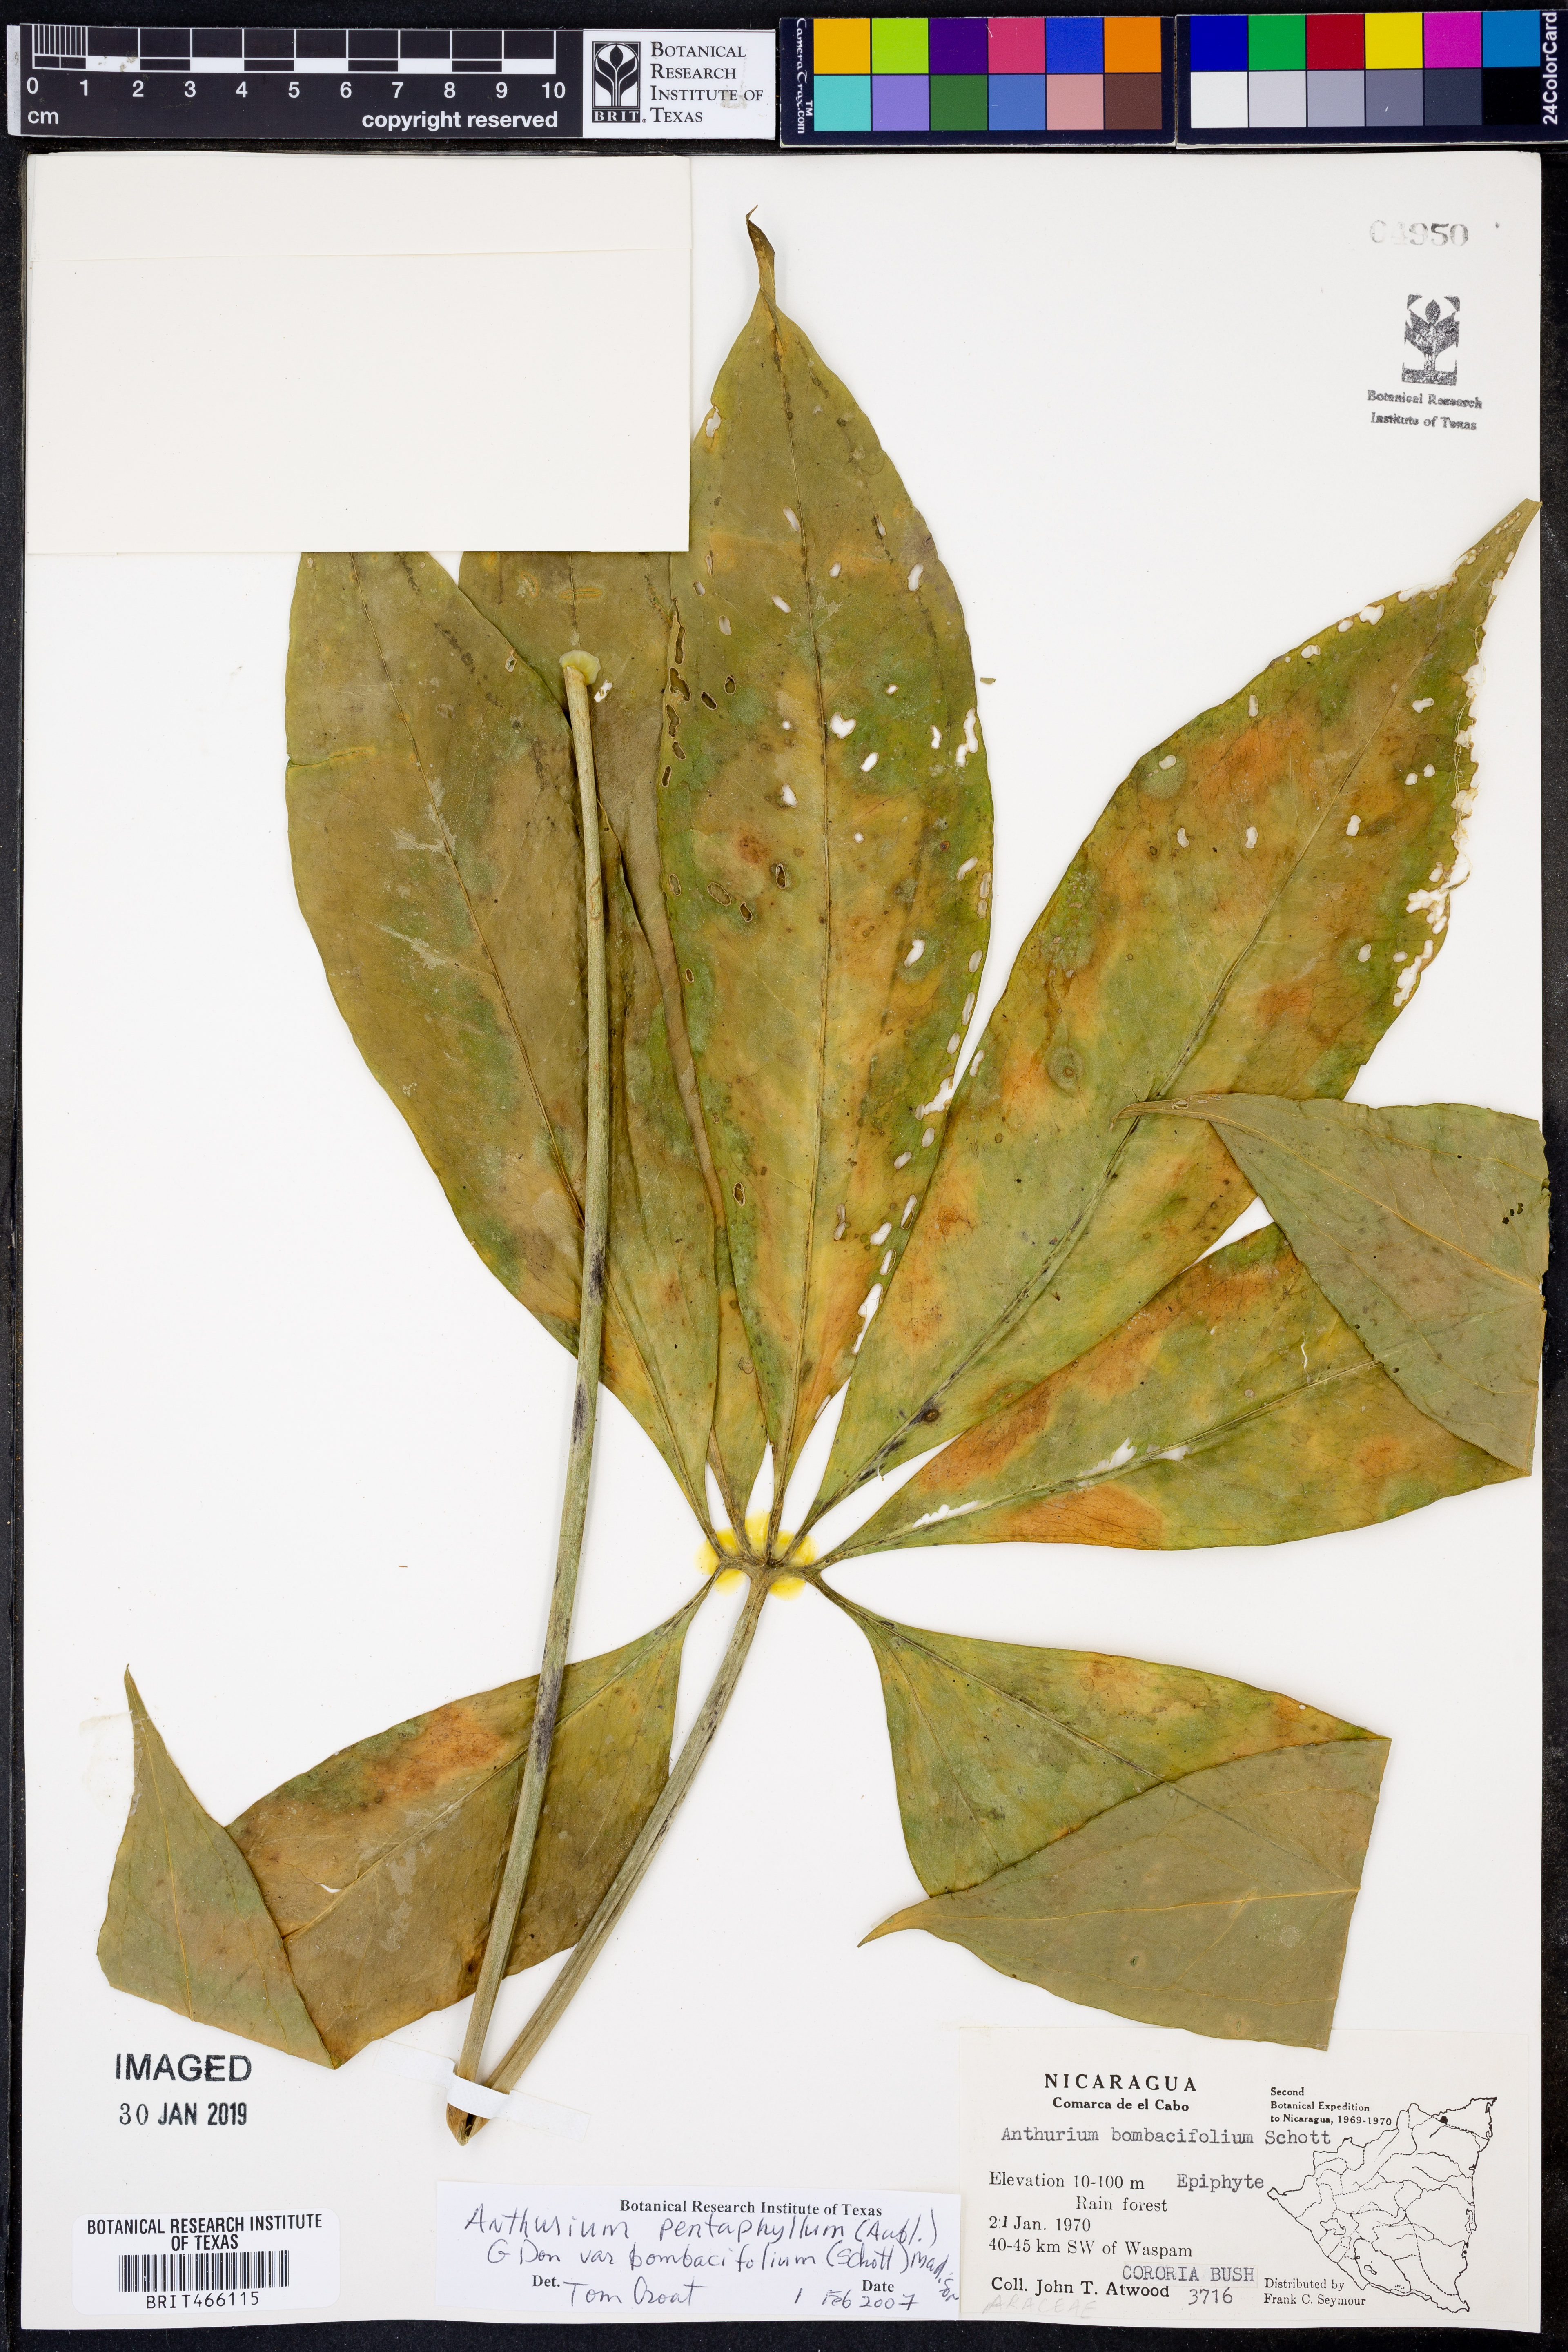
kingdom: Plantae
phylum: Tracheophyta
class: Liliopsida
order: Alismatales
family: Araceae
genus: Anthurium
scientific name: Anthurium pentaphyllum
